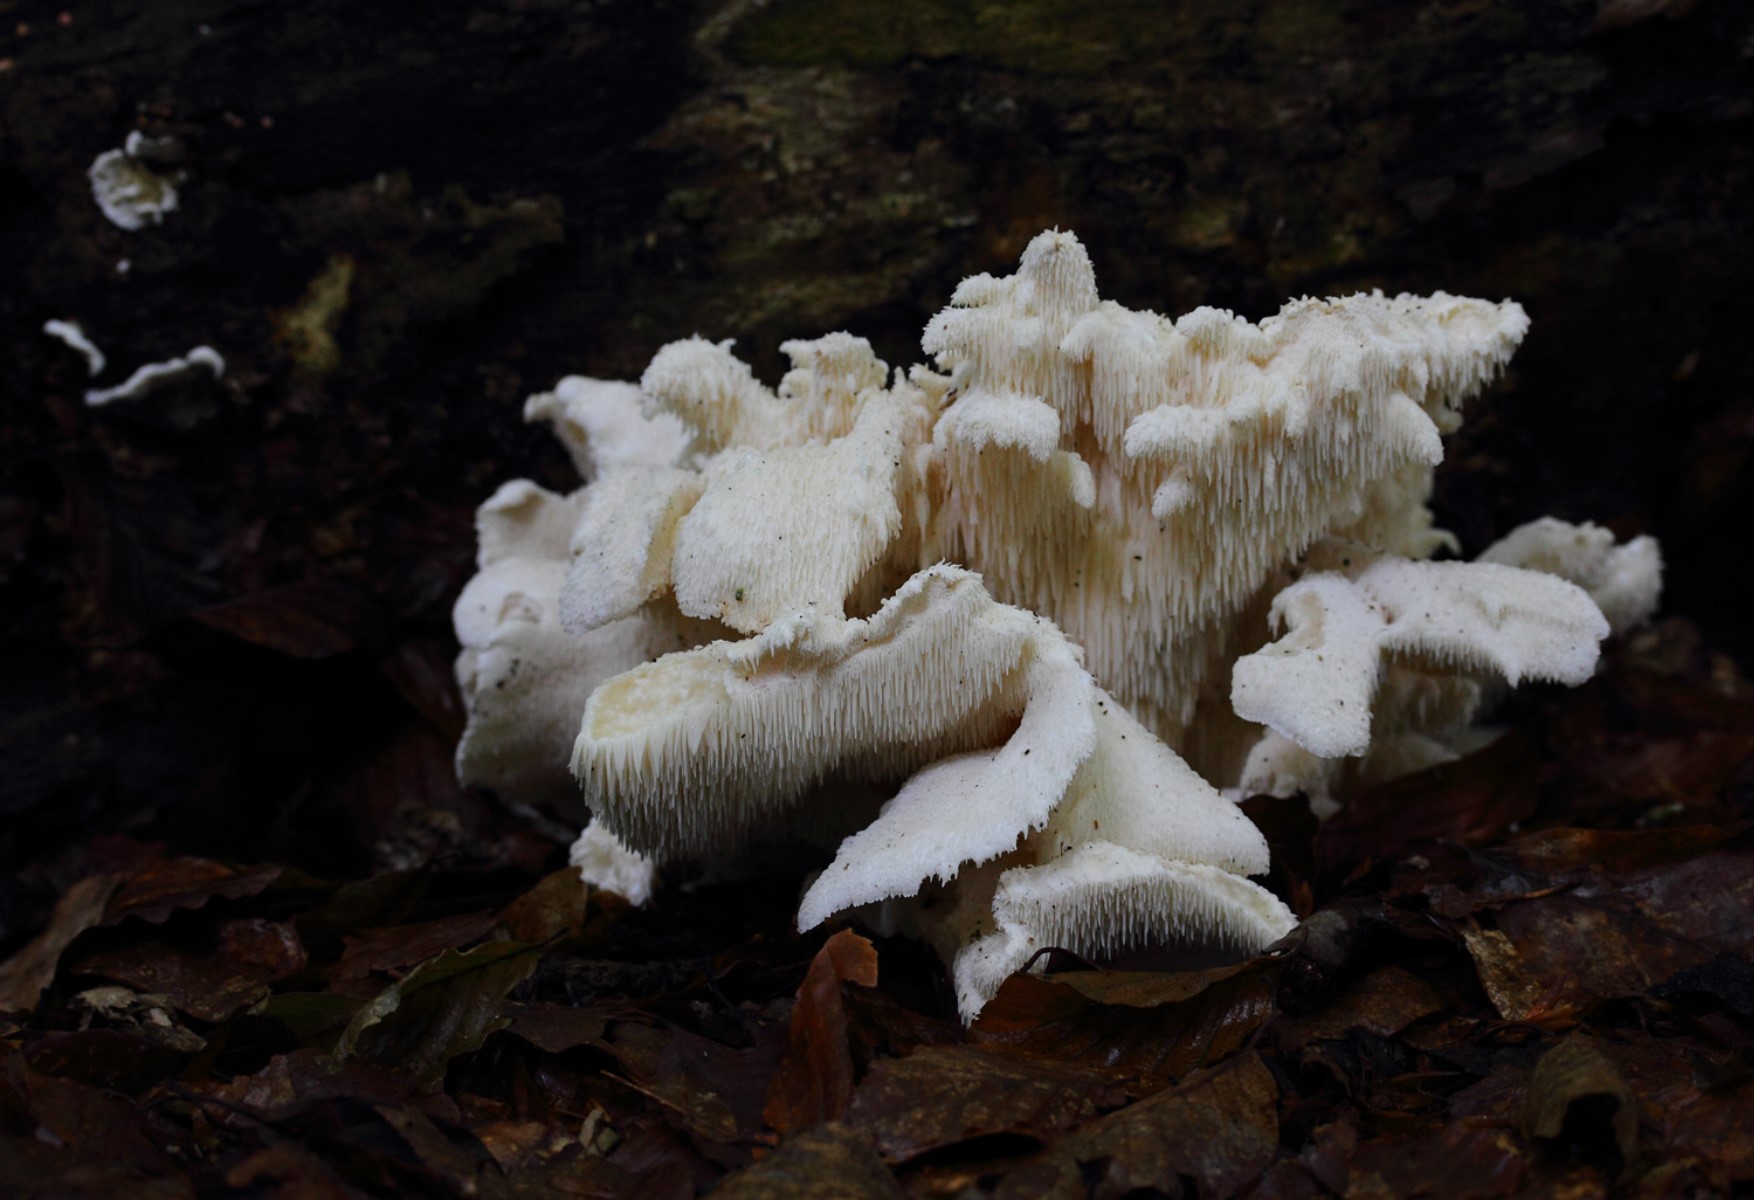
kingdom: Fungi
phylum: Basidiomycota
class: Agaricomycetes
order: Russulales
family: Hericiaceae
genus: Hericium
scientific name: Hericium cirrhatum
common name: børstepigsvamp
